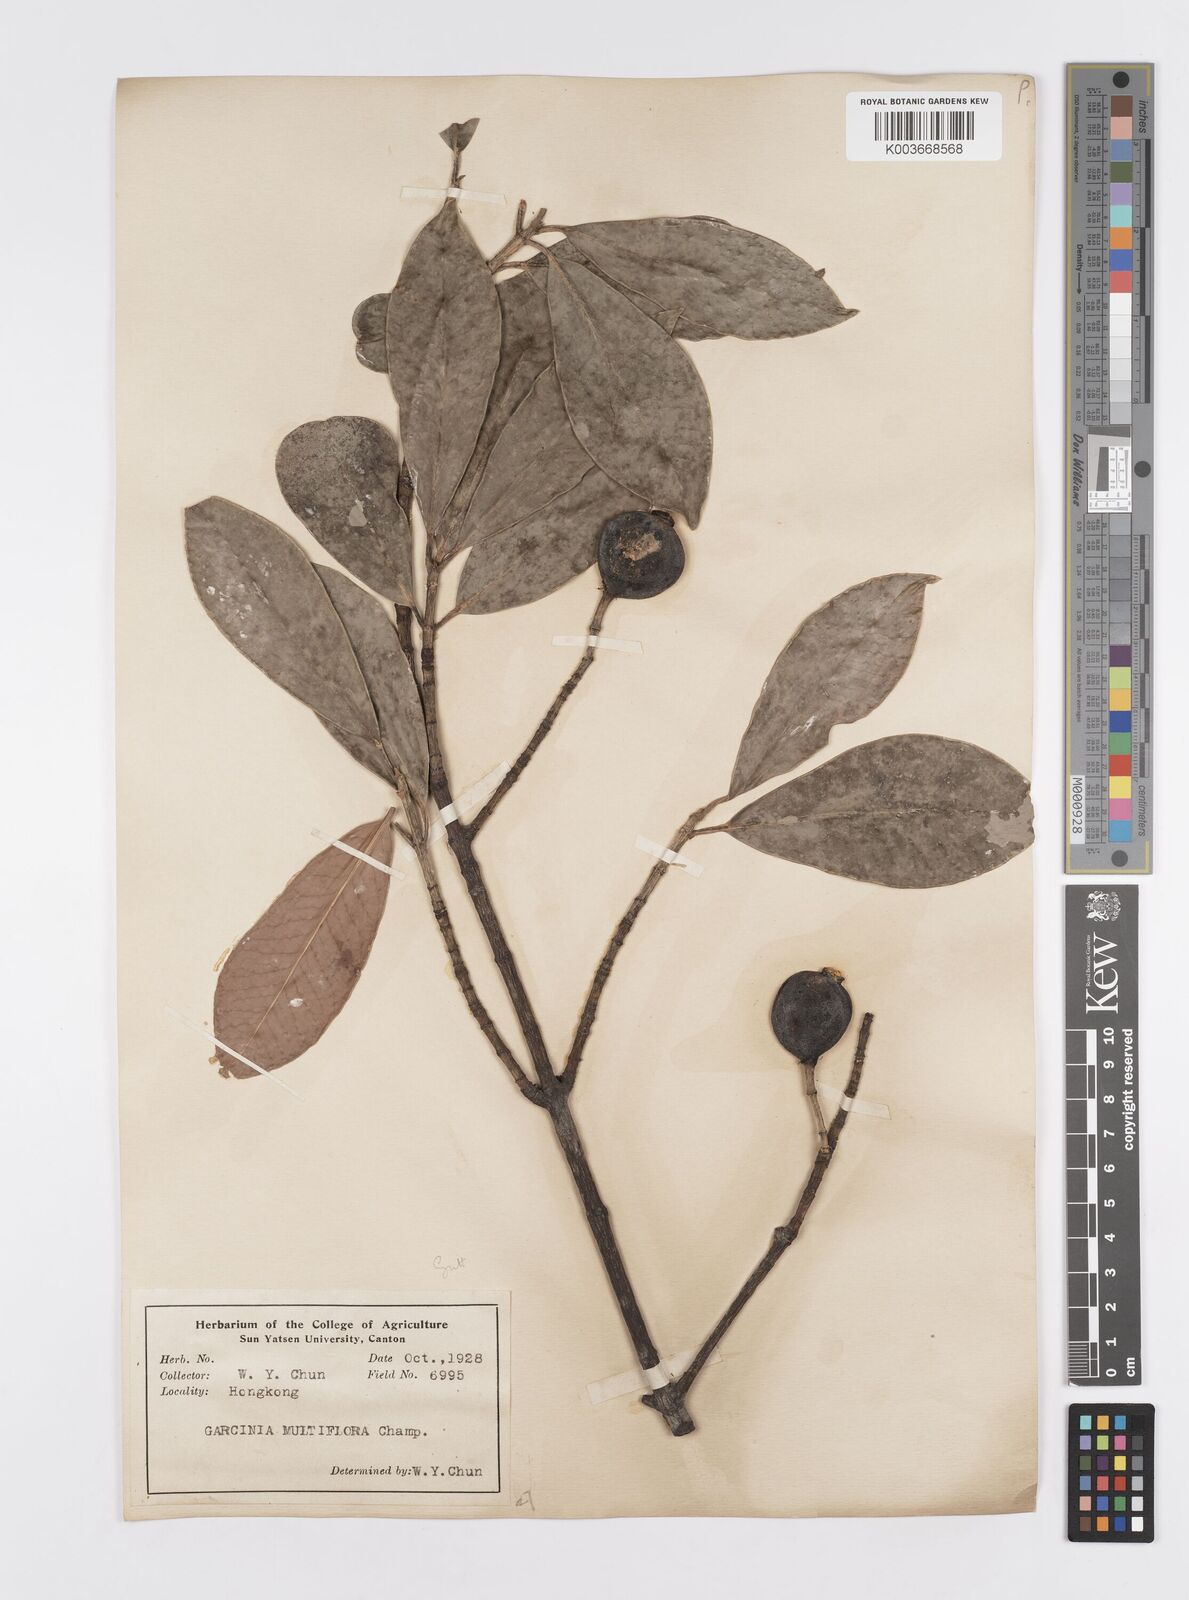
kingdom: Plantae
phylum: Tracheophyta
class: Magnoliopsida
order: Malpighiales
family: Clusiaceae
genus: Garcinia
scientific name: Garcinia multiflora
